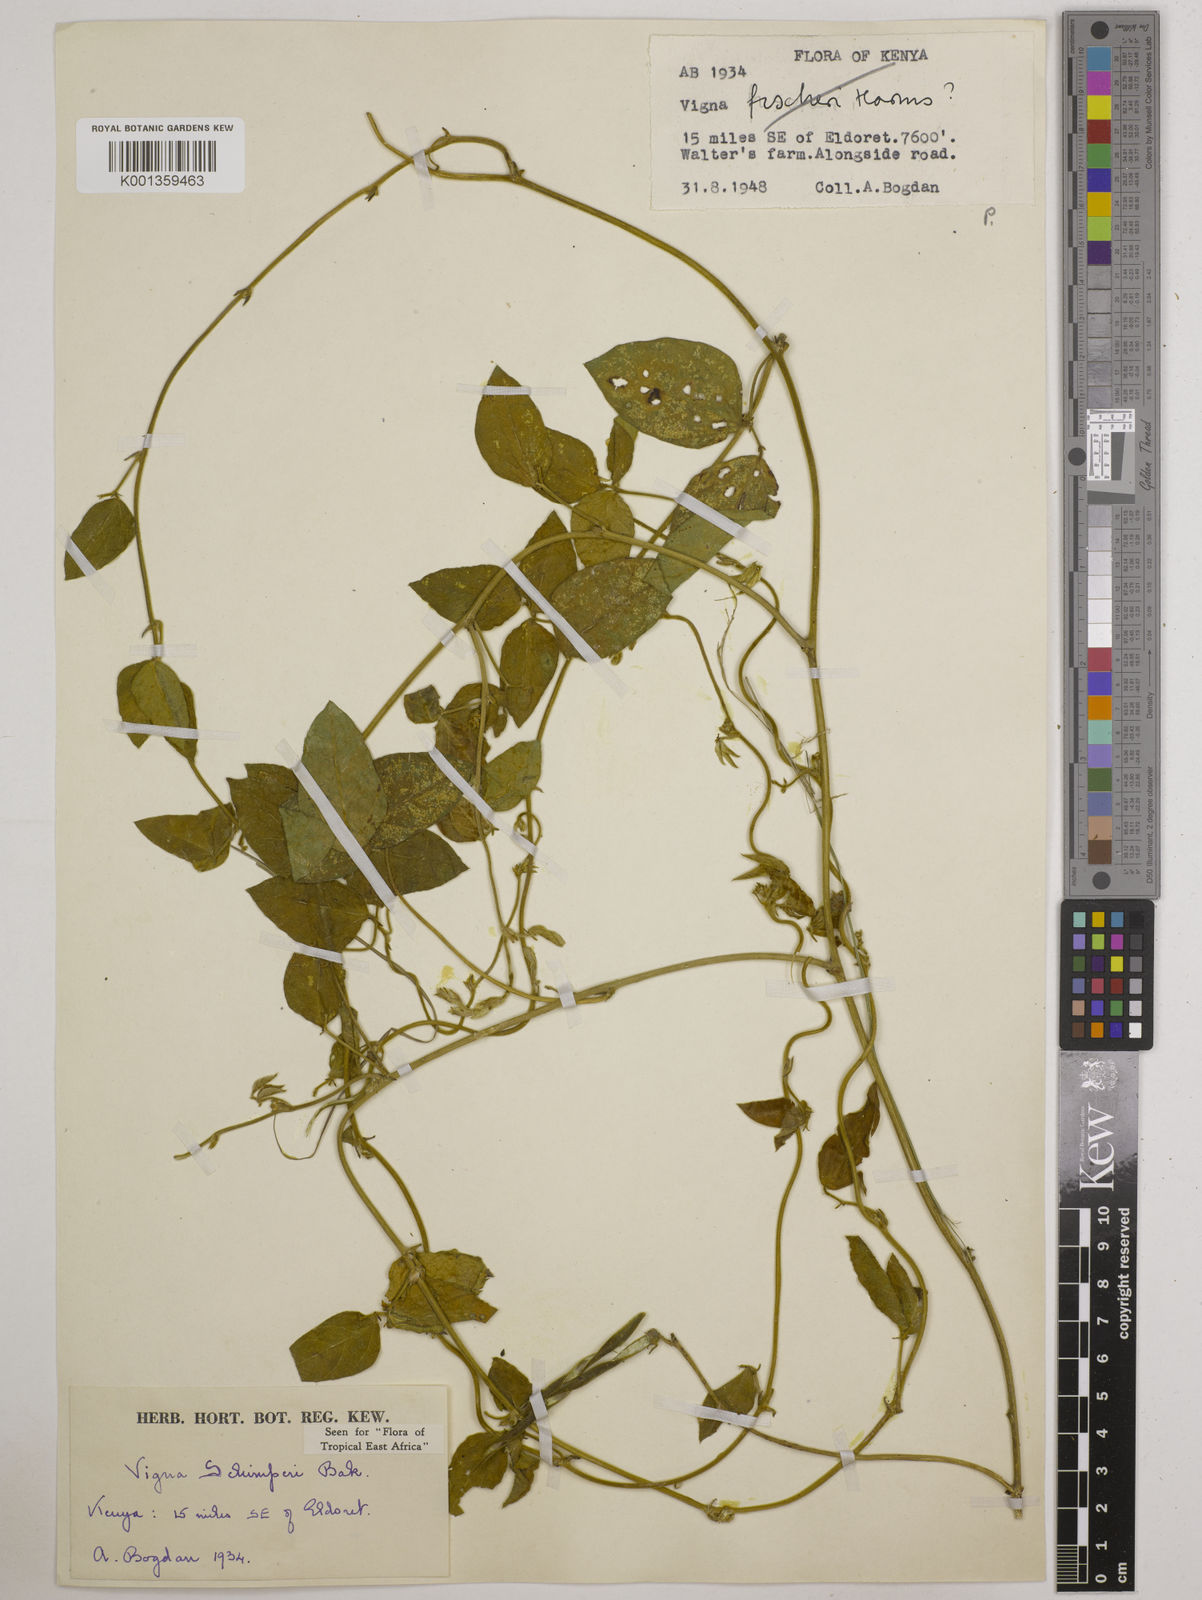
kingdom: Plantae
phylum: Tracheophyta
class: Magnoliopsida
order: Fabales
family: Fabaceae
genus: Vigna
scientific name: Vigna schimperi
